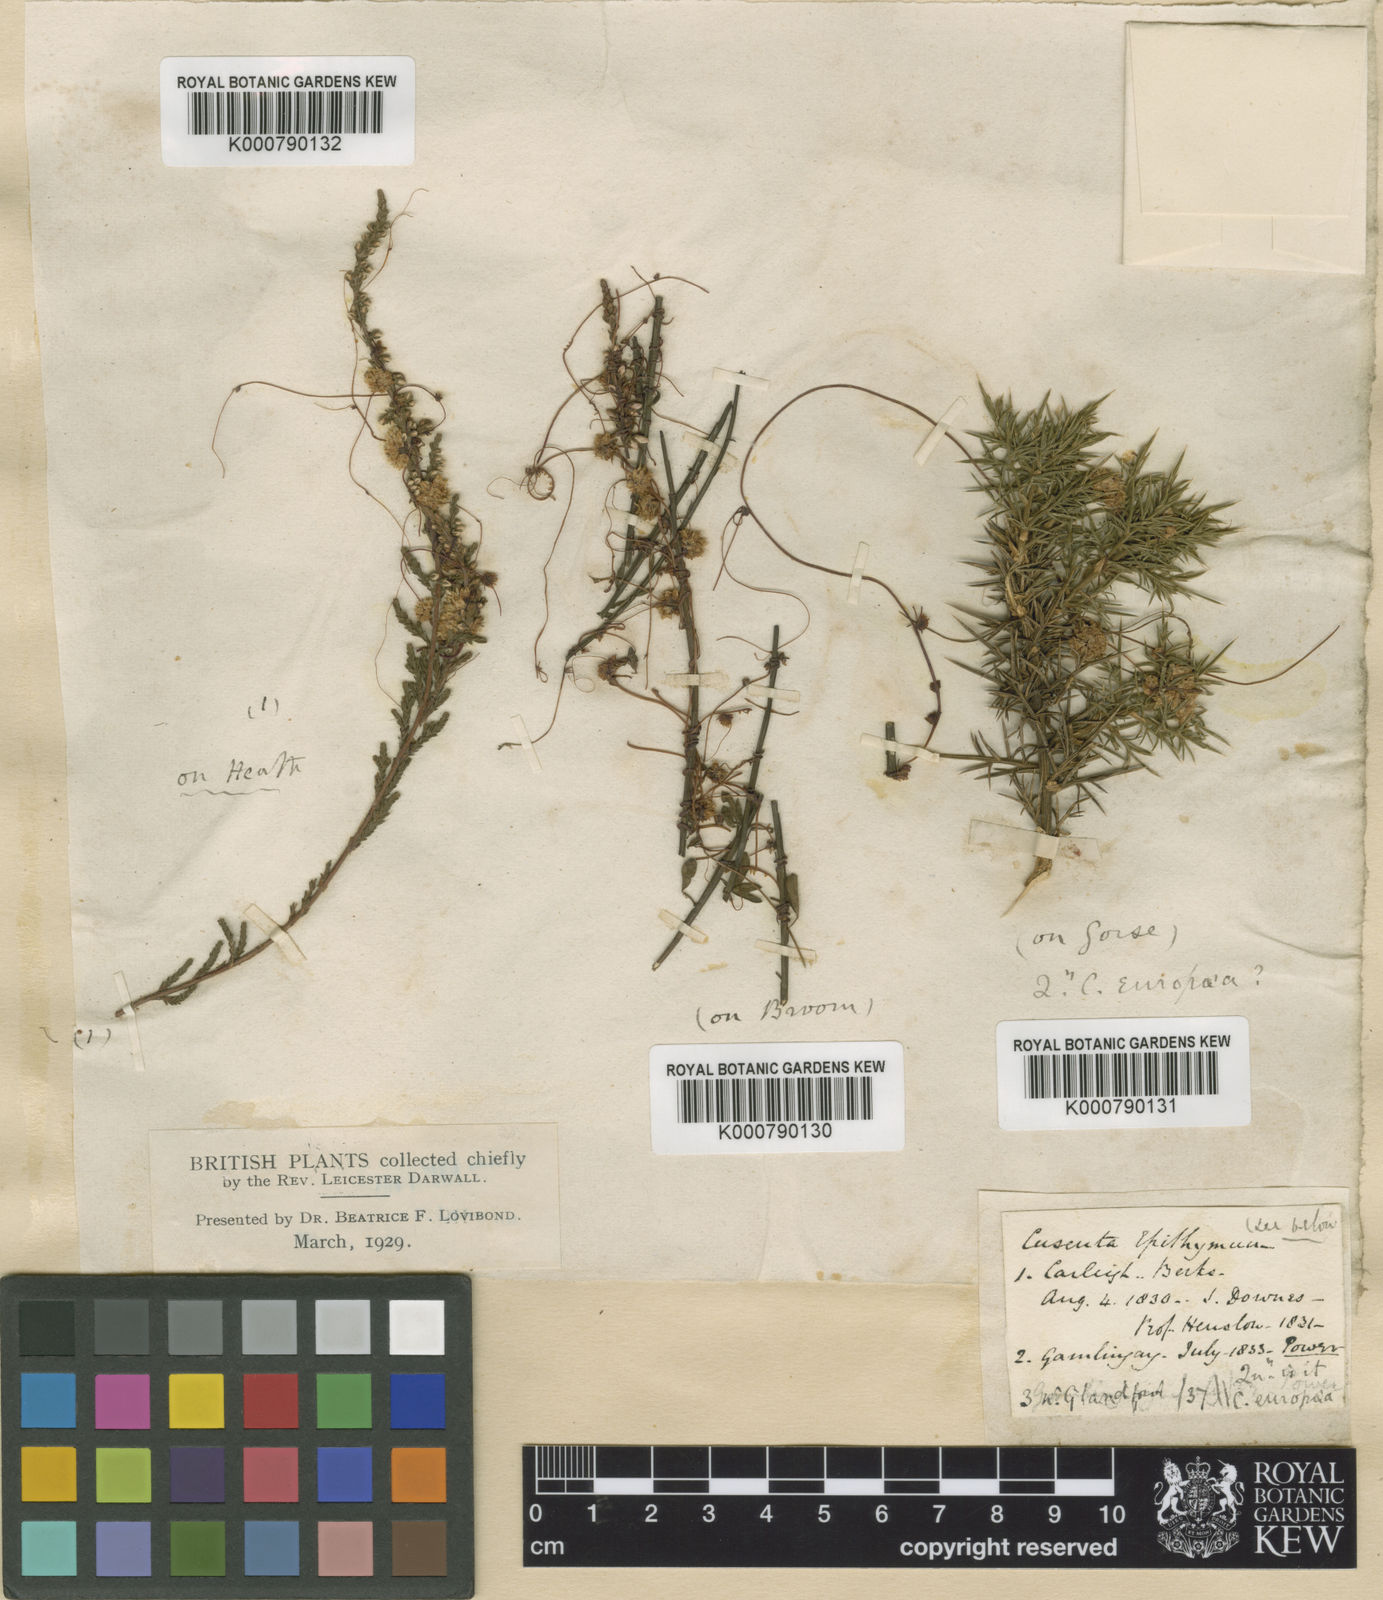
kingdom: Plantae
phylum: Tracheophyta
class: Magnoliopsida
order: Solanales
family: Convolvulaceae
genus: Cuscuta
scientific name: Cuscuta epithymum
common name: Clover dodder
